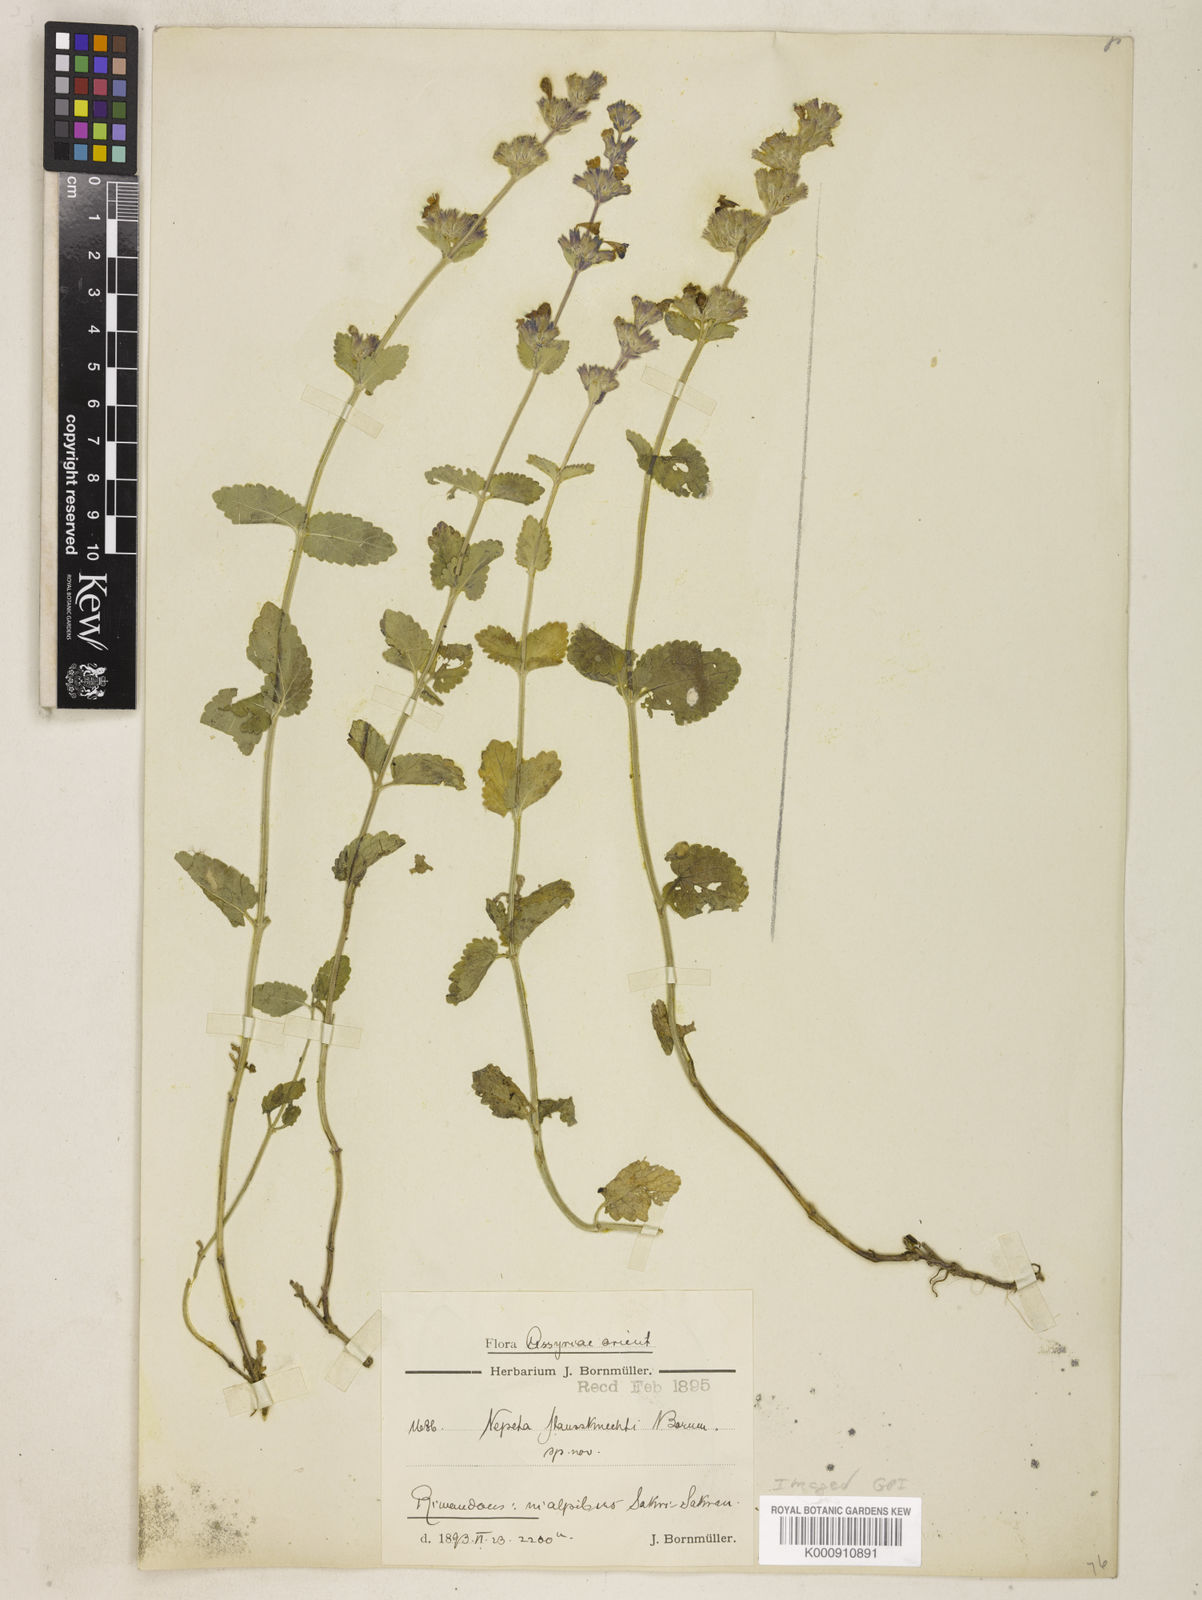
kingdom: Plantae
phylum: Tracheophyta
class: Magnoliopsida
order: Lamiales
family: Lamiaceae
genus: Nepeta
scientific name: Nepeta racemosa
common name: Raceme catnip
